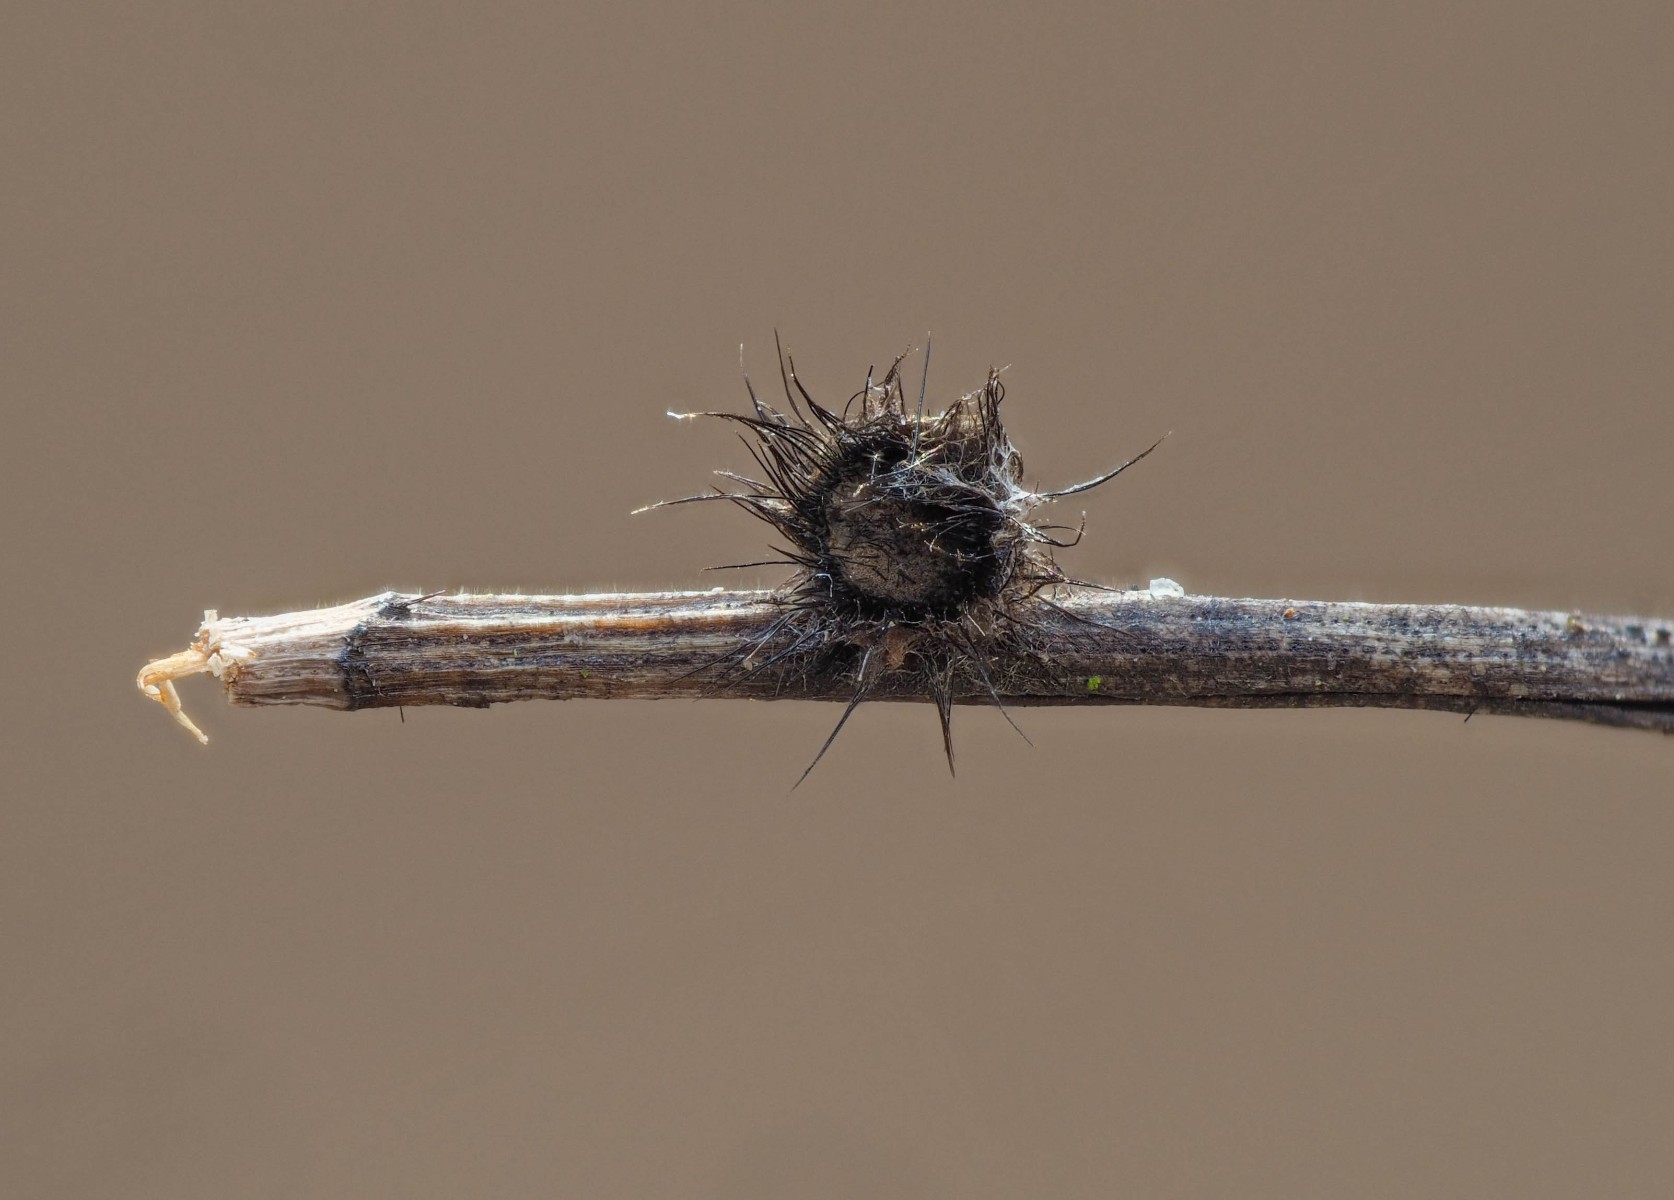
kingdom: Fungi
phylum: Ascomycota
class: Pezizomycetes
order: Pezizales
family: Chorioactidaceae
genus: Desmazierella
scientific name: Desmazierella acicola
